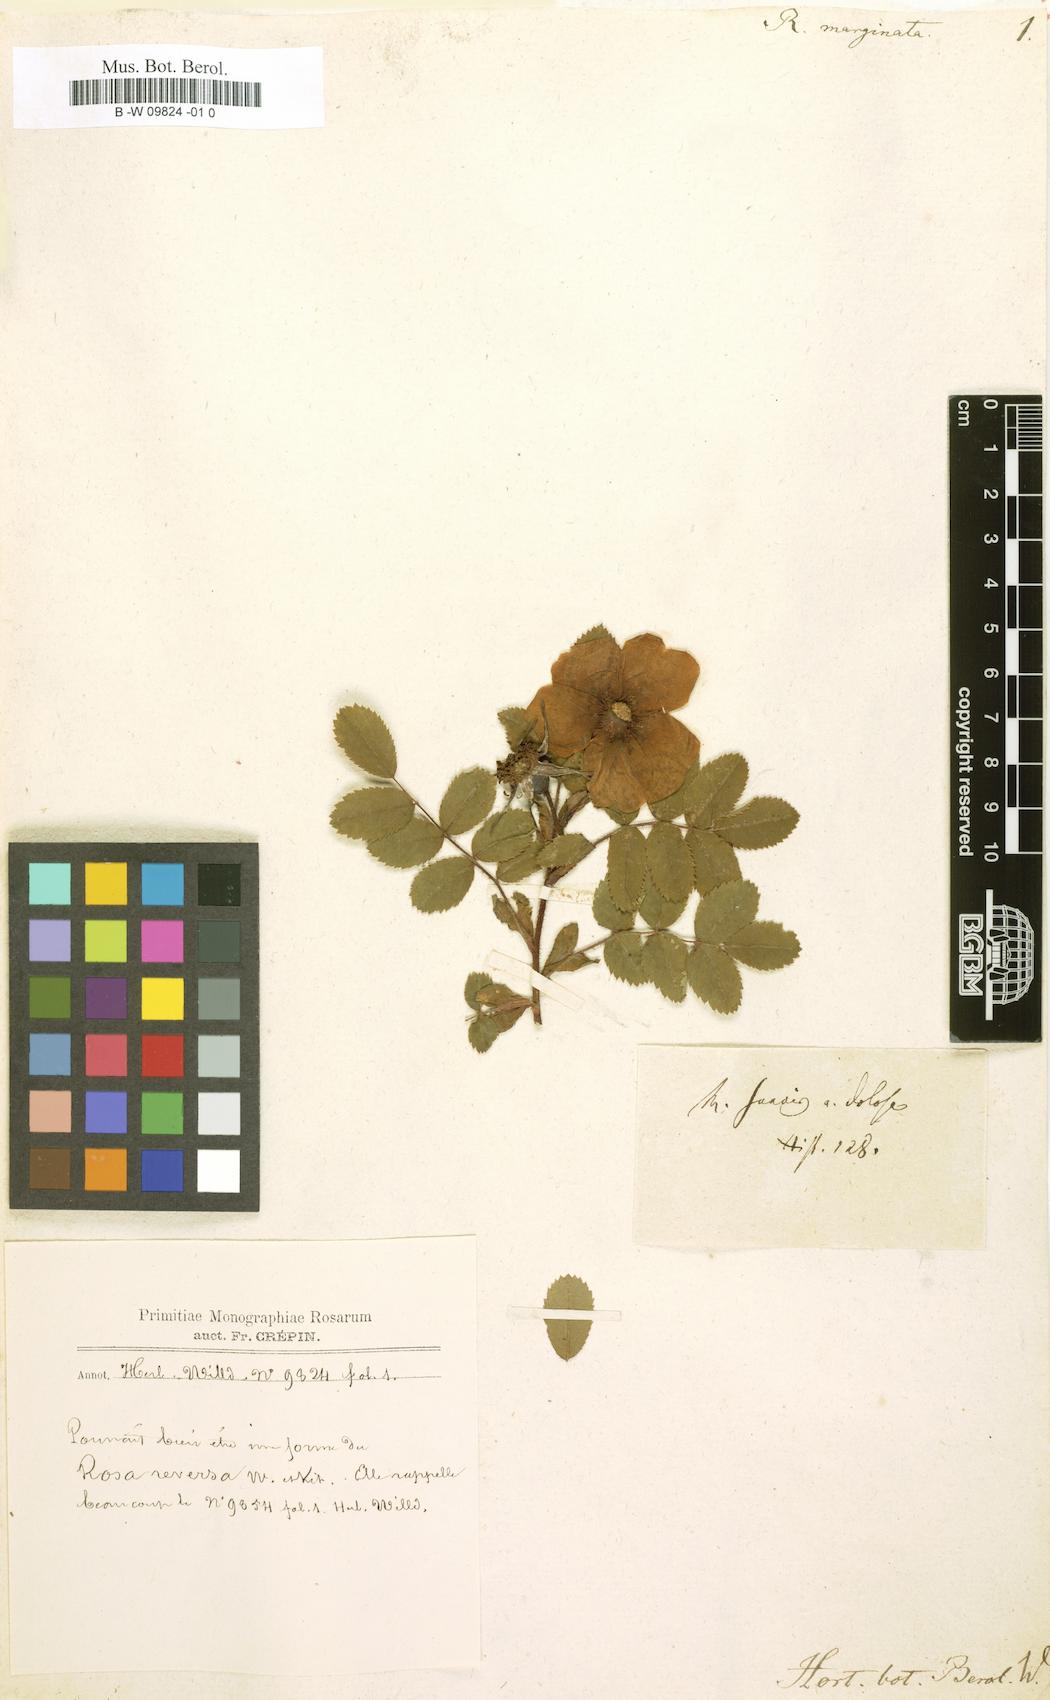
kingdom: Plantae
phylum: Tracheophyta
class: Magnoliopsida
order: Rosales
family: Rosaceae
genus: Rosa
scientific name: Rosa marginata
